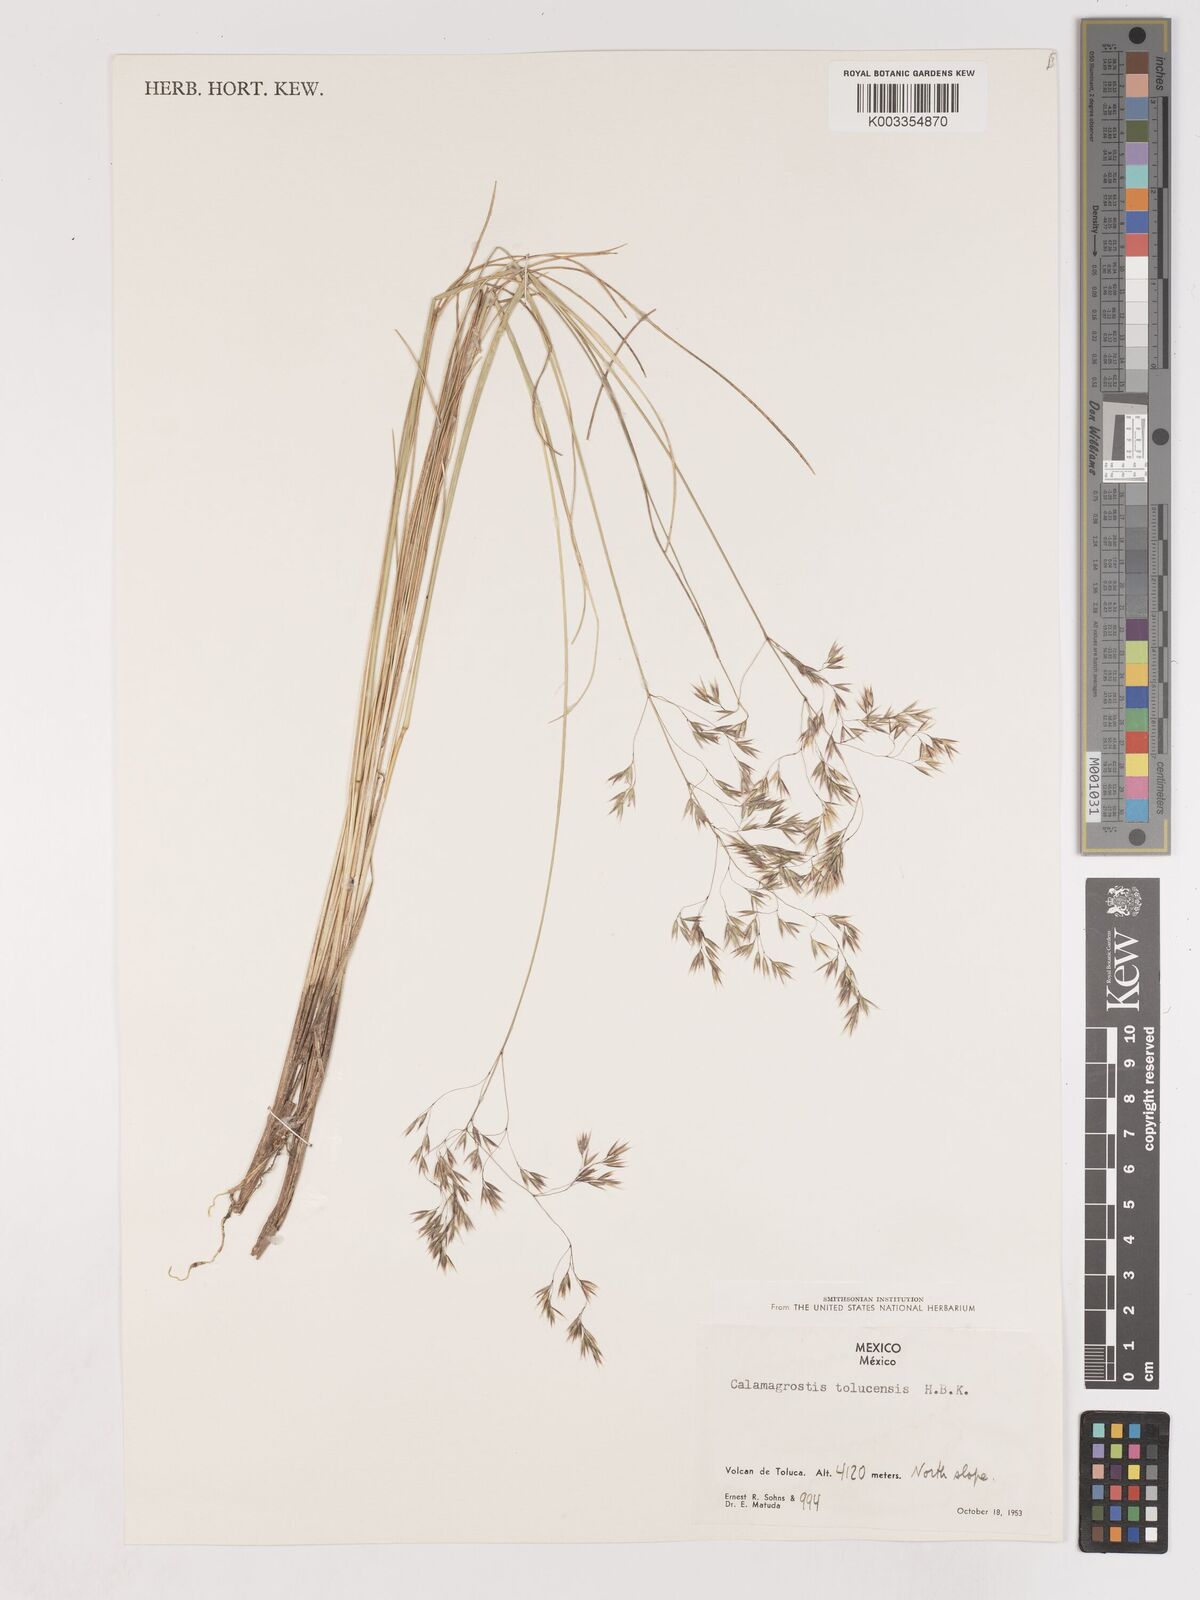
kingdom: Plantae
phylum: Tracheophyta
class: Liliopsida
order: Poales
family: Poaceae
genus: Peyritschia
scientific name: Peyritschia tolucensis
